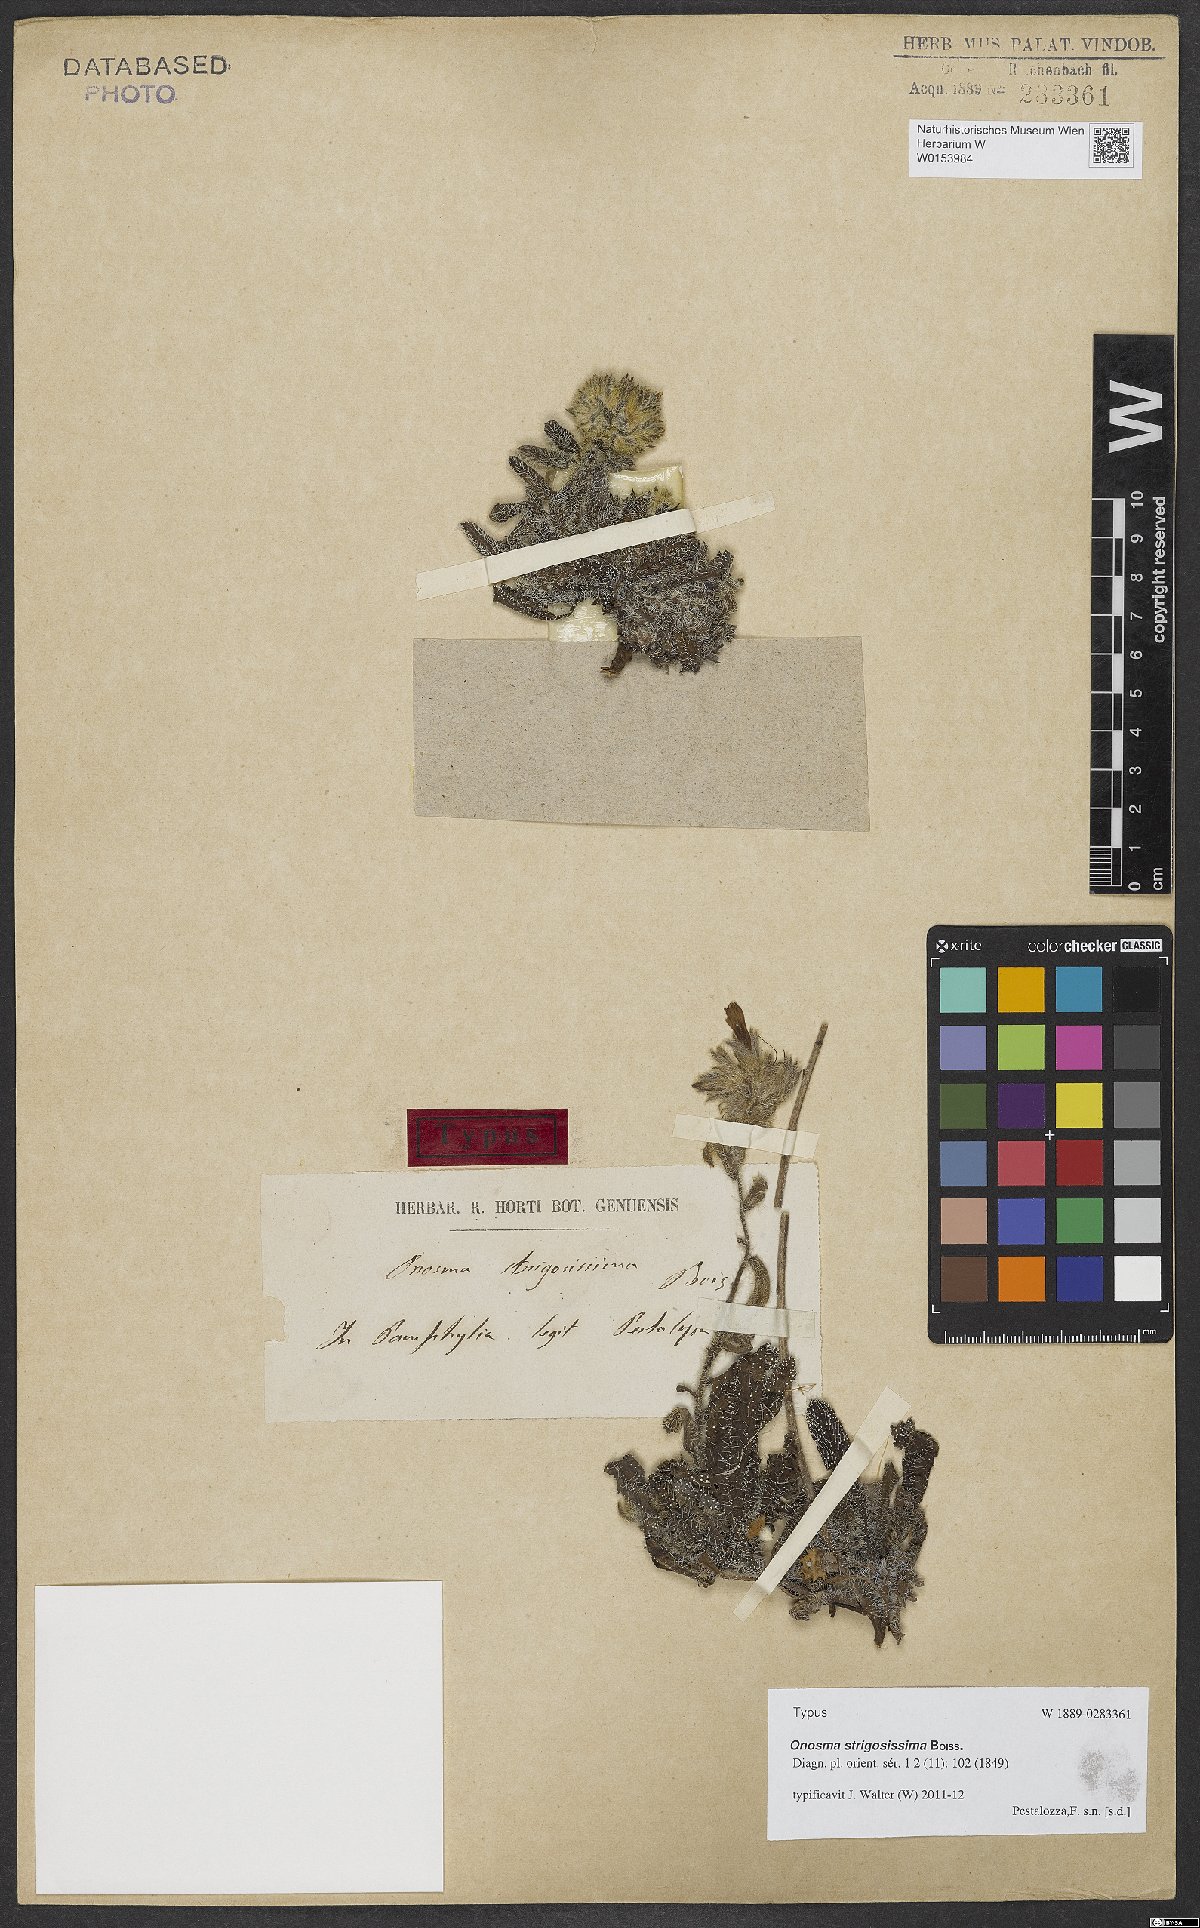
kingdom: Plantae
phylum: Tracheophyta
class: Magnoliopsida
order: Boraginales
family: Boraginaceae
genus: Onosma
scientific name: Onosma strigosissima
